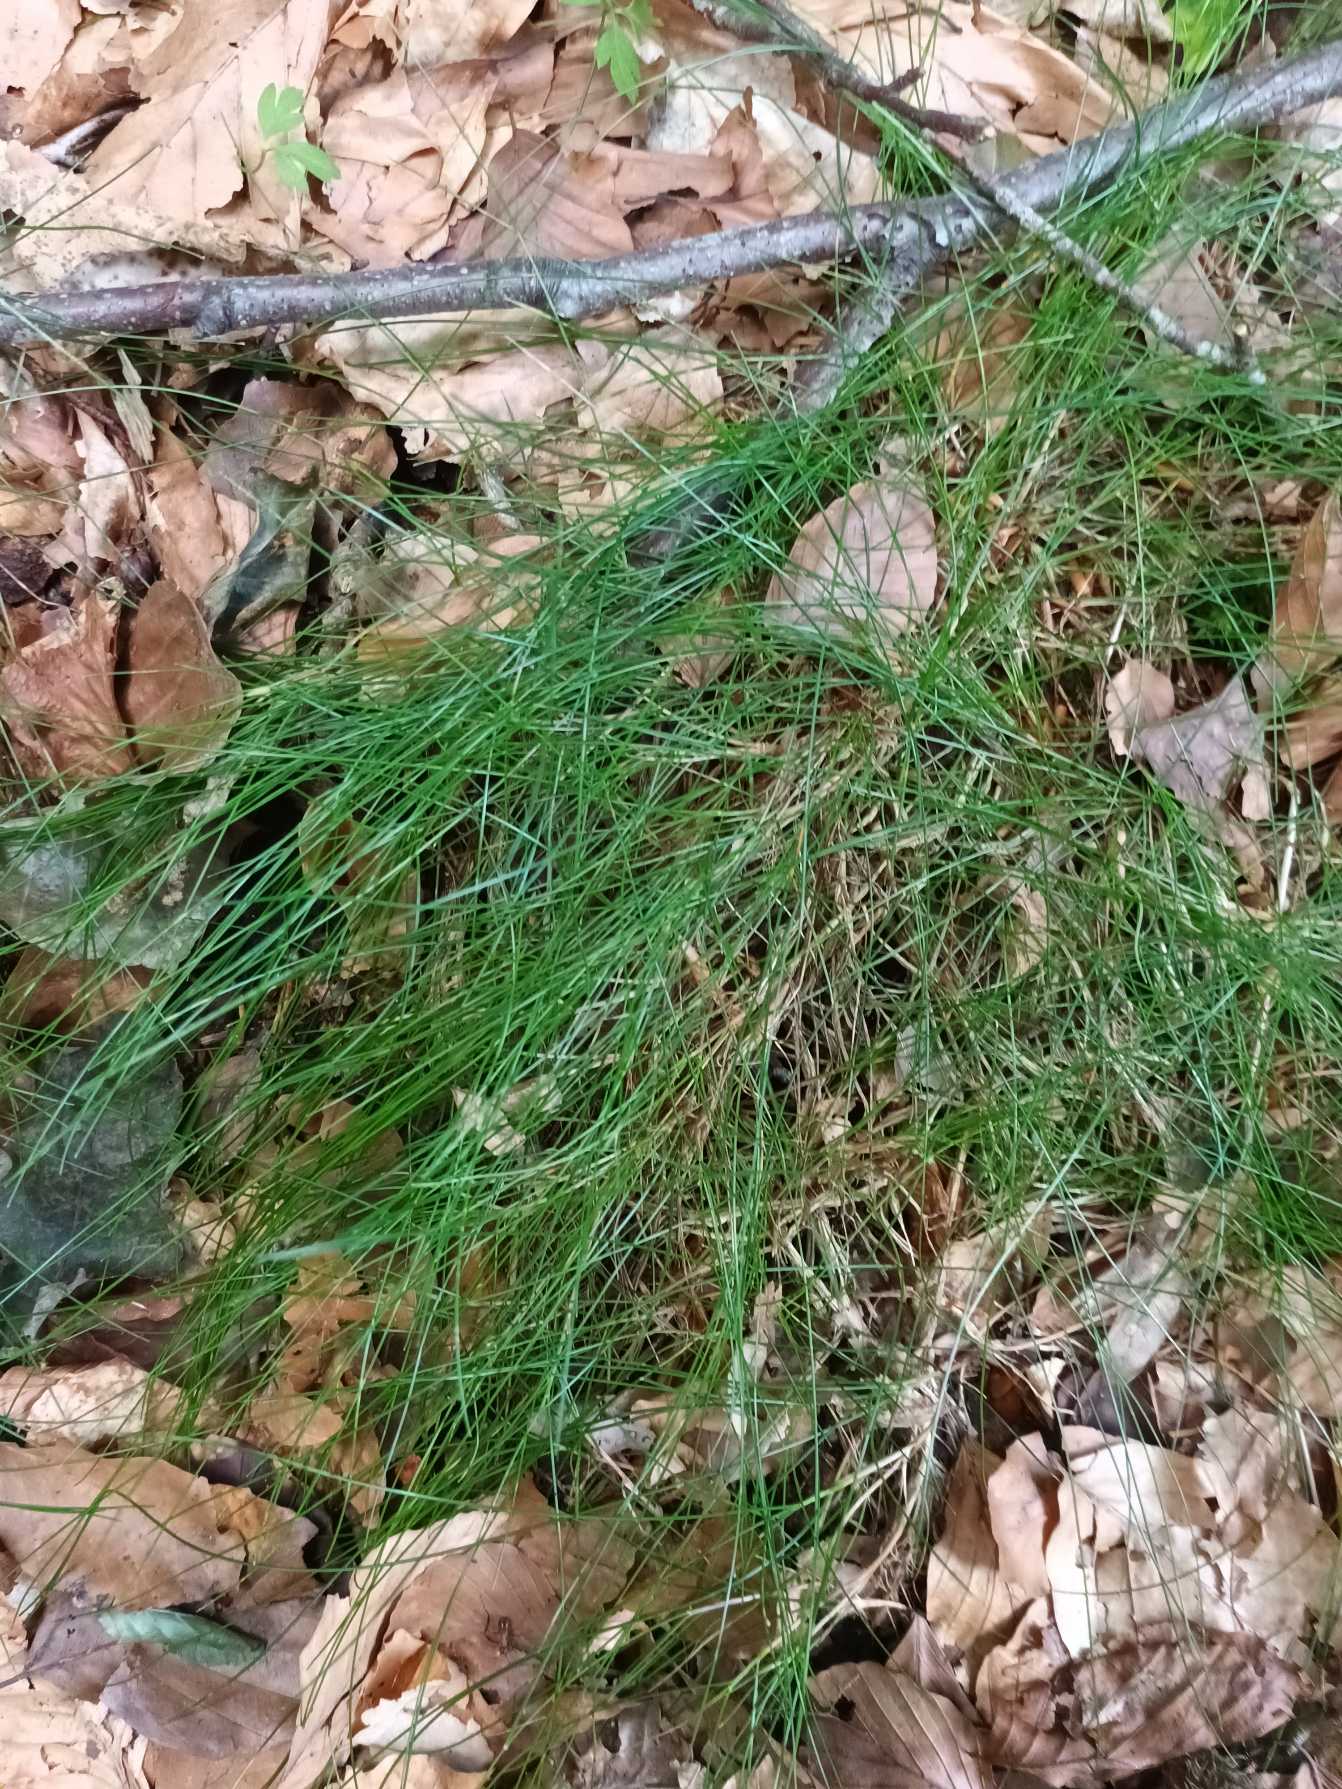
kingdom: Plantae
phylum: Tracheophyta
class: Liliopsida
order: Poales
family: Poaceae
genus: Avenella
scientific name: Avenella flexuosa
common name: Bølget bunke
